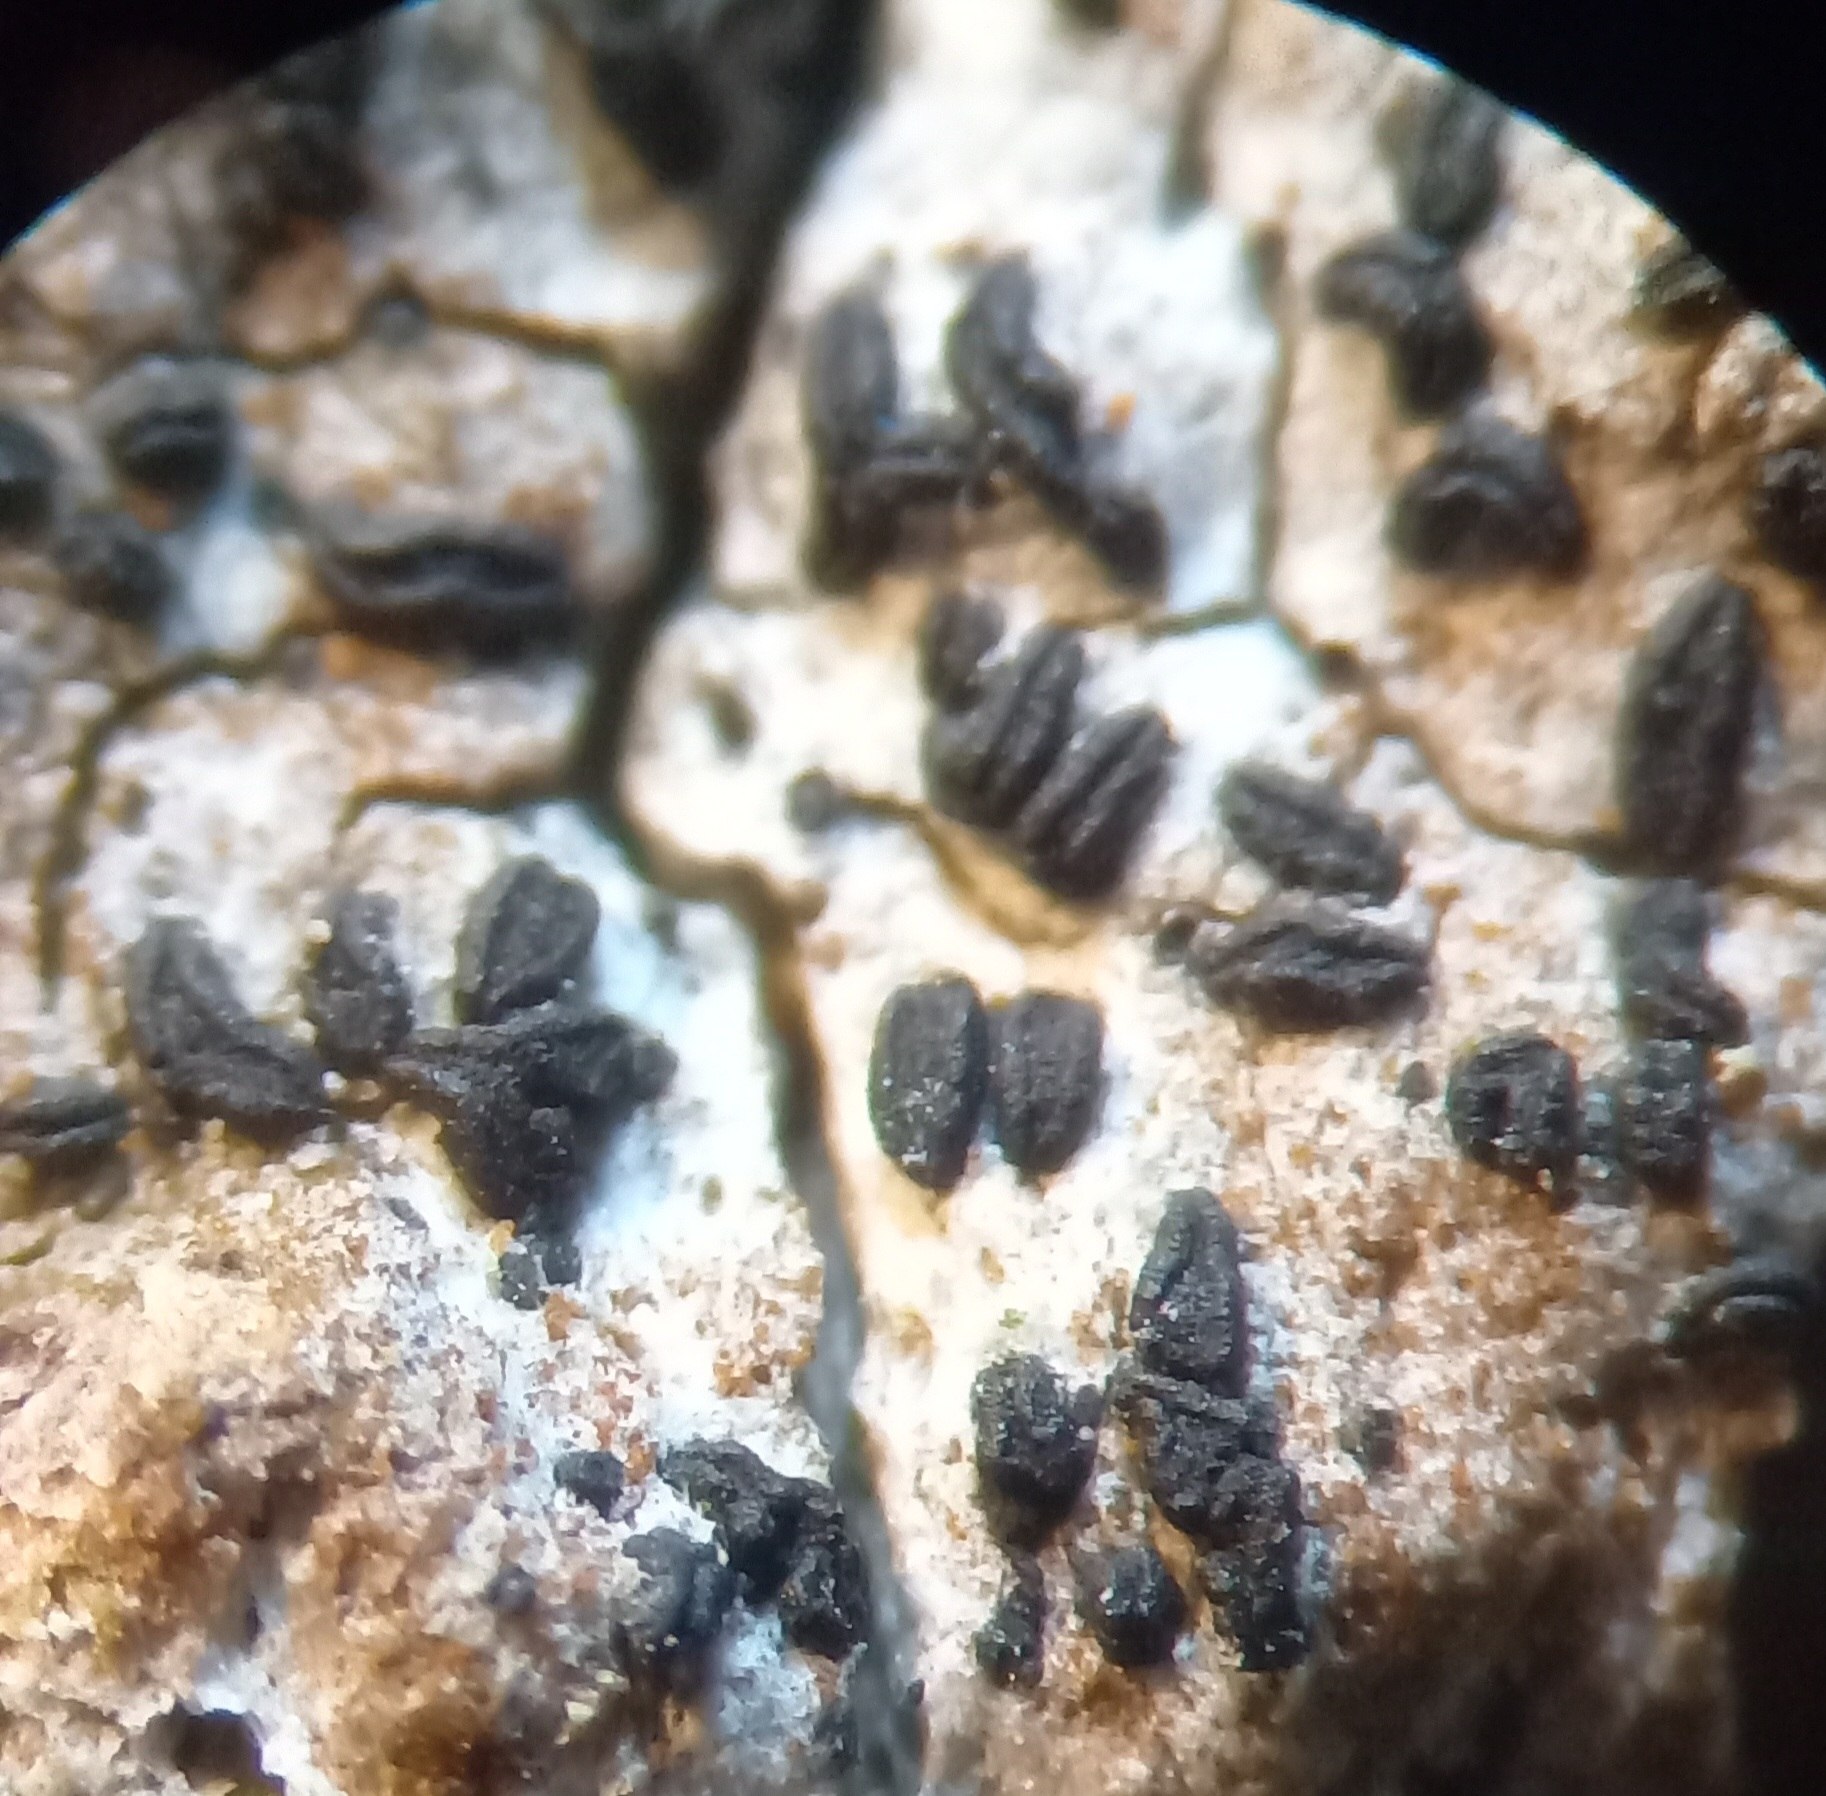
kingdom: Fungi
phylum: Ascomycota
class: Arthoniomycetes
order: Arthoniales
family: Lecanographaceae
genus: Alyxoria
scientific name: Alyxoria varia
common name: almindelig bogstavlav
